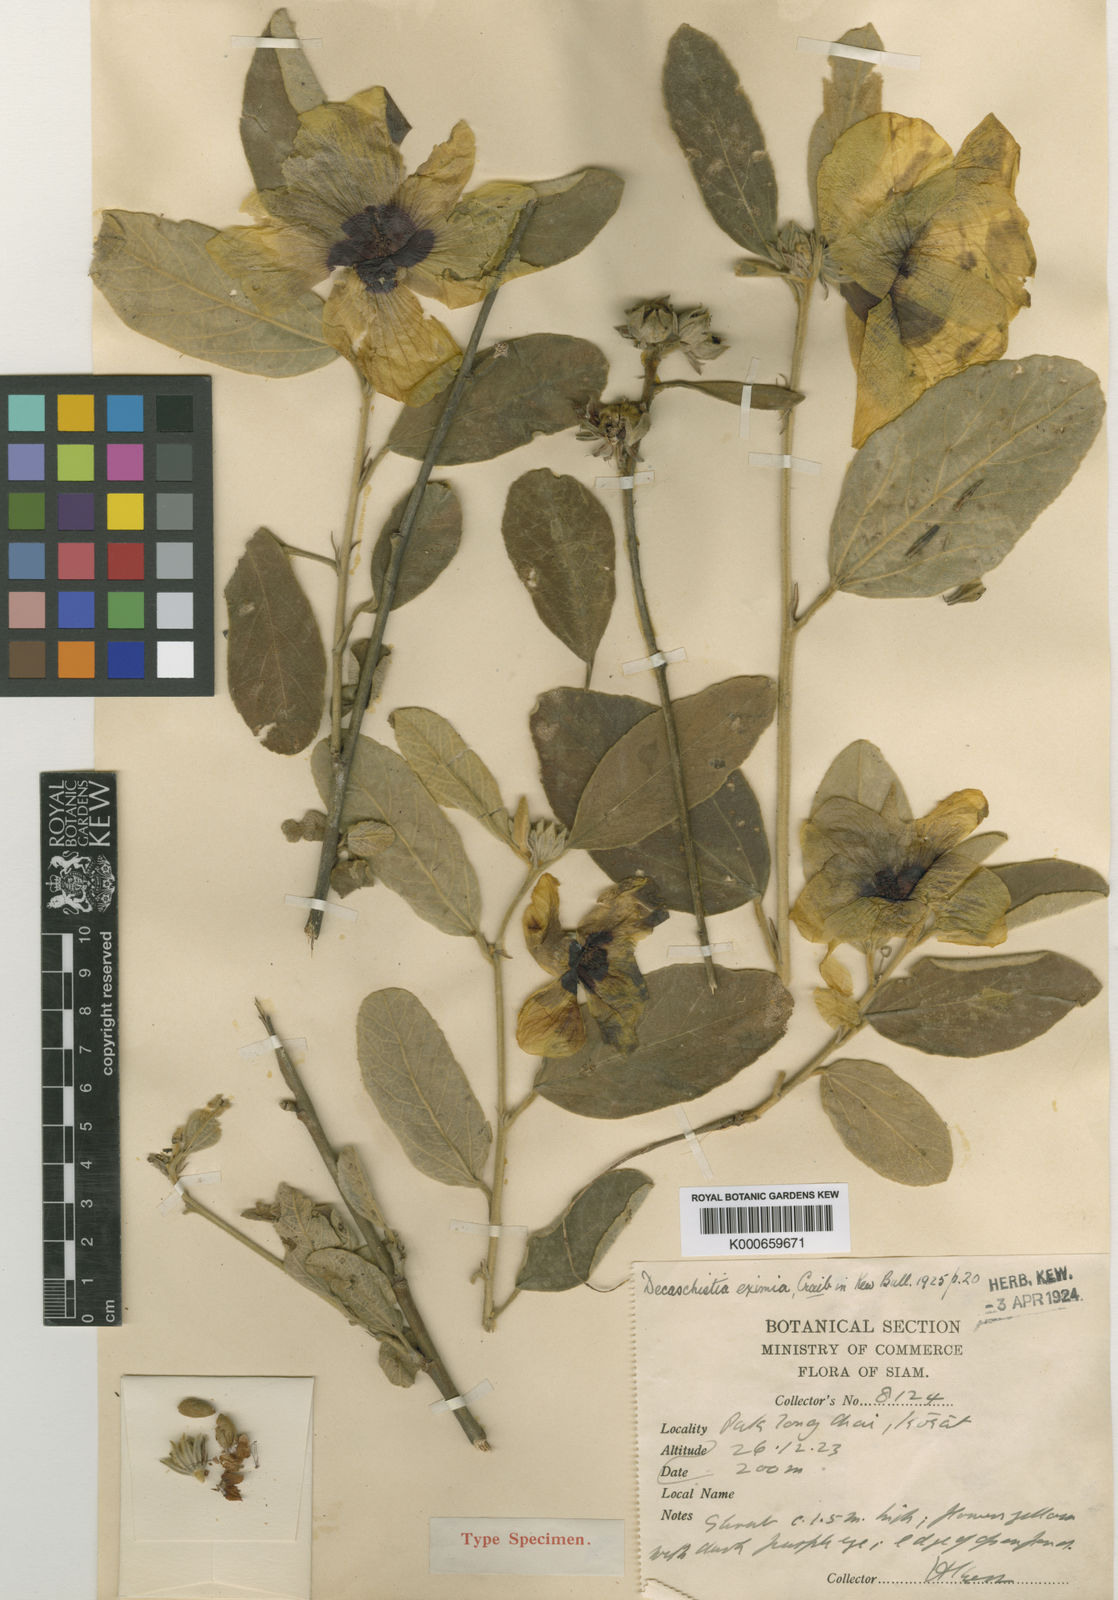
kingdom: Plantae
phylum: Tracheophyta
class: Magnoliopsida
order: Malvales
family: Malvaceae
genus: Decaschistia
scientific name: Decaschistia parviflora
